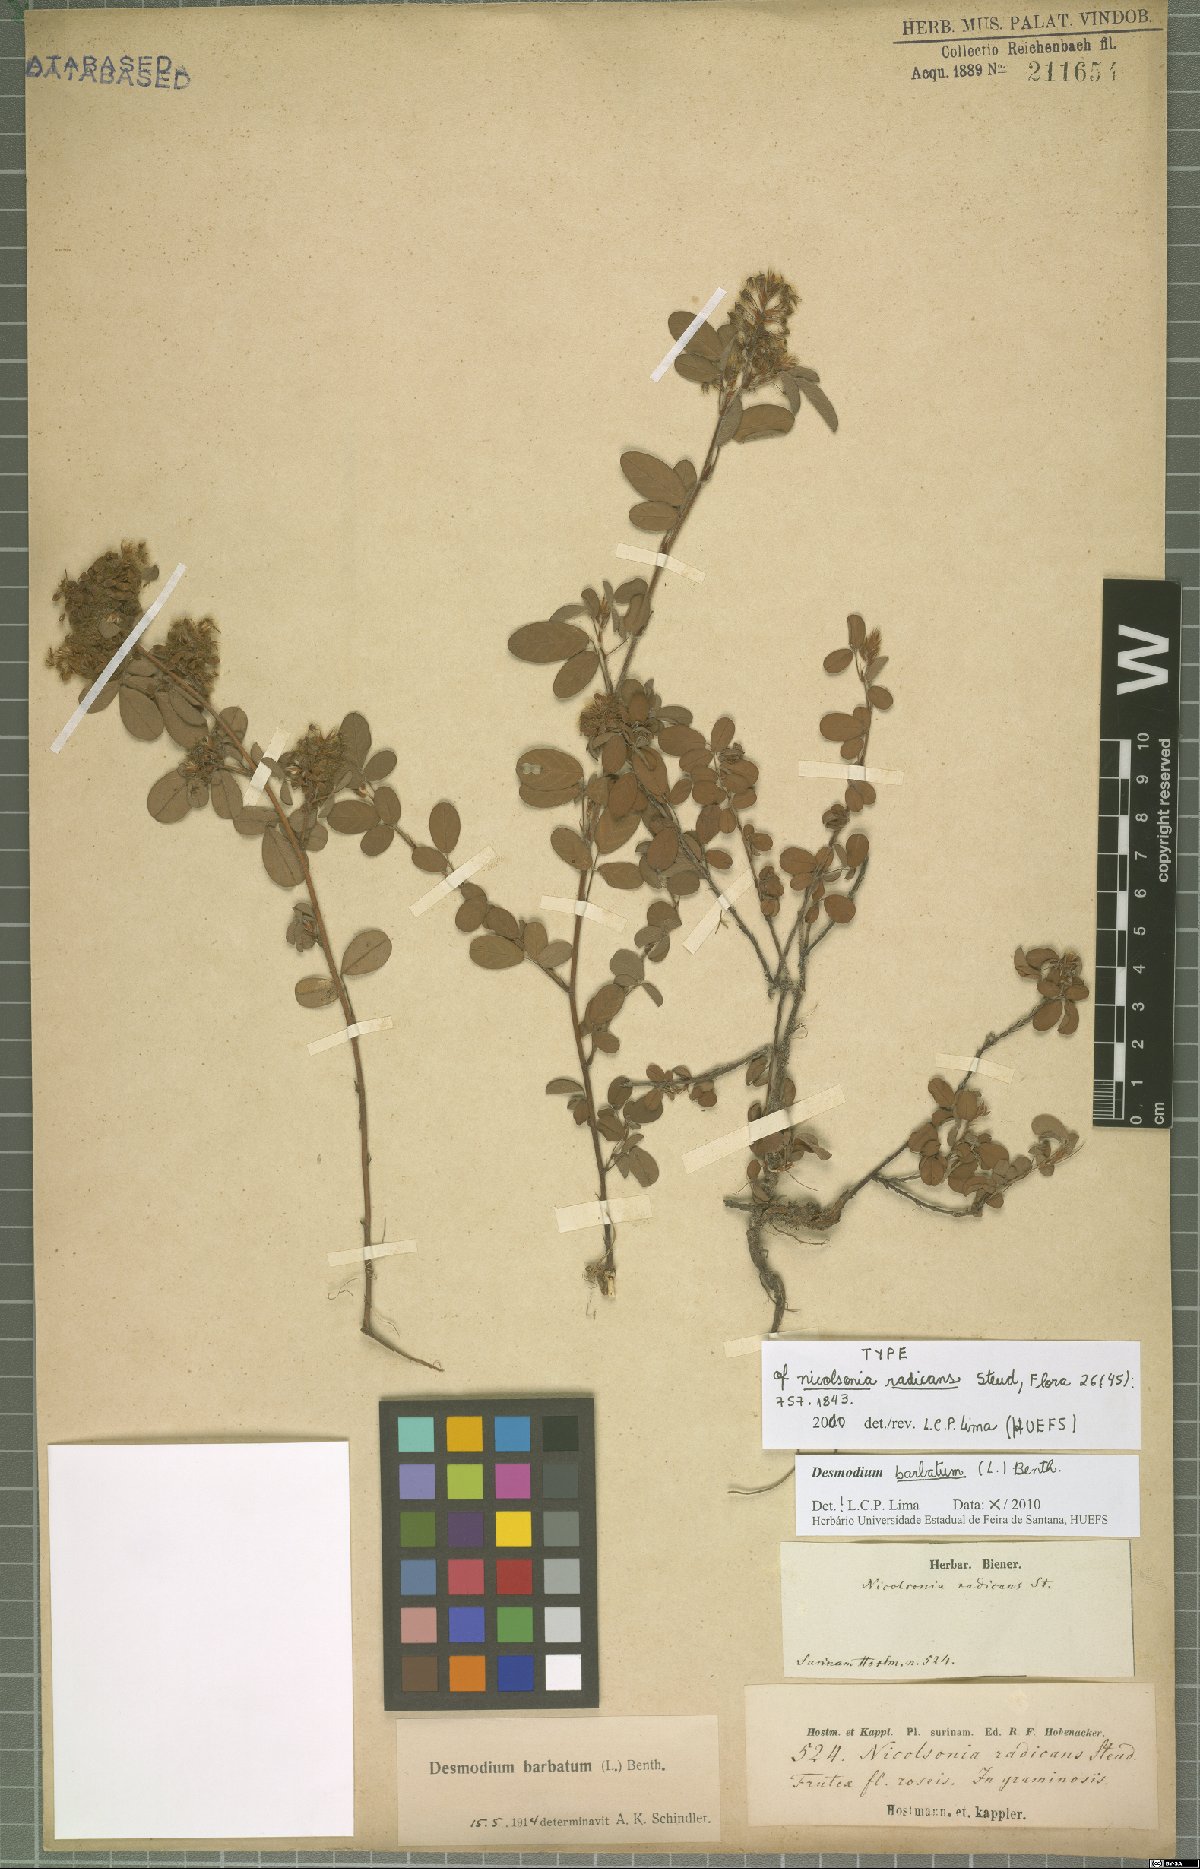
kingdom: Plantae
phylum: Tracheophyta
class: Magnoliopsida
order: Fabales
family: Fabaceae
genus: Grona
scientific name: Grona barbata
